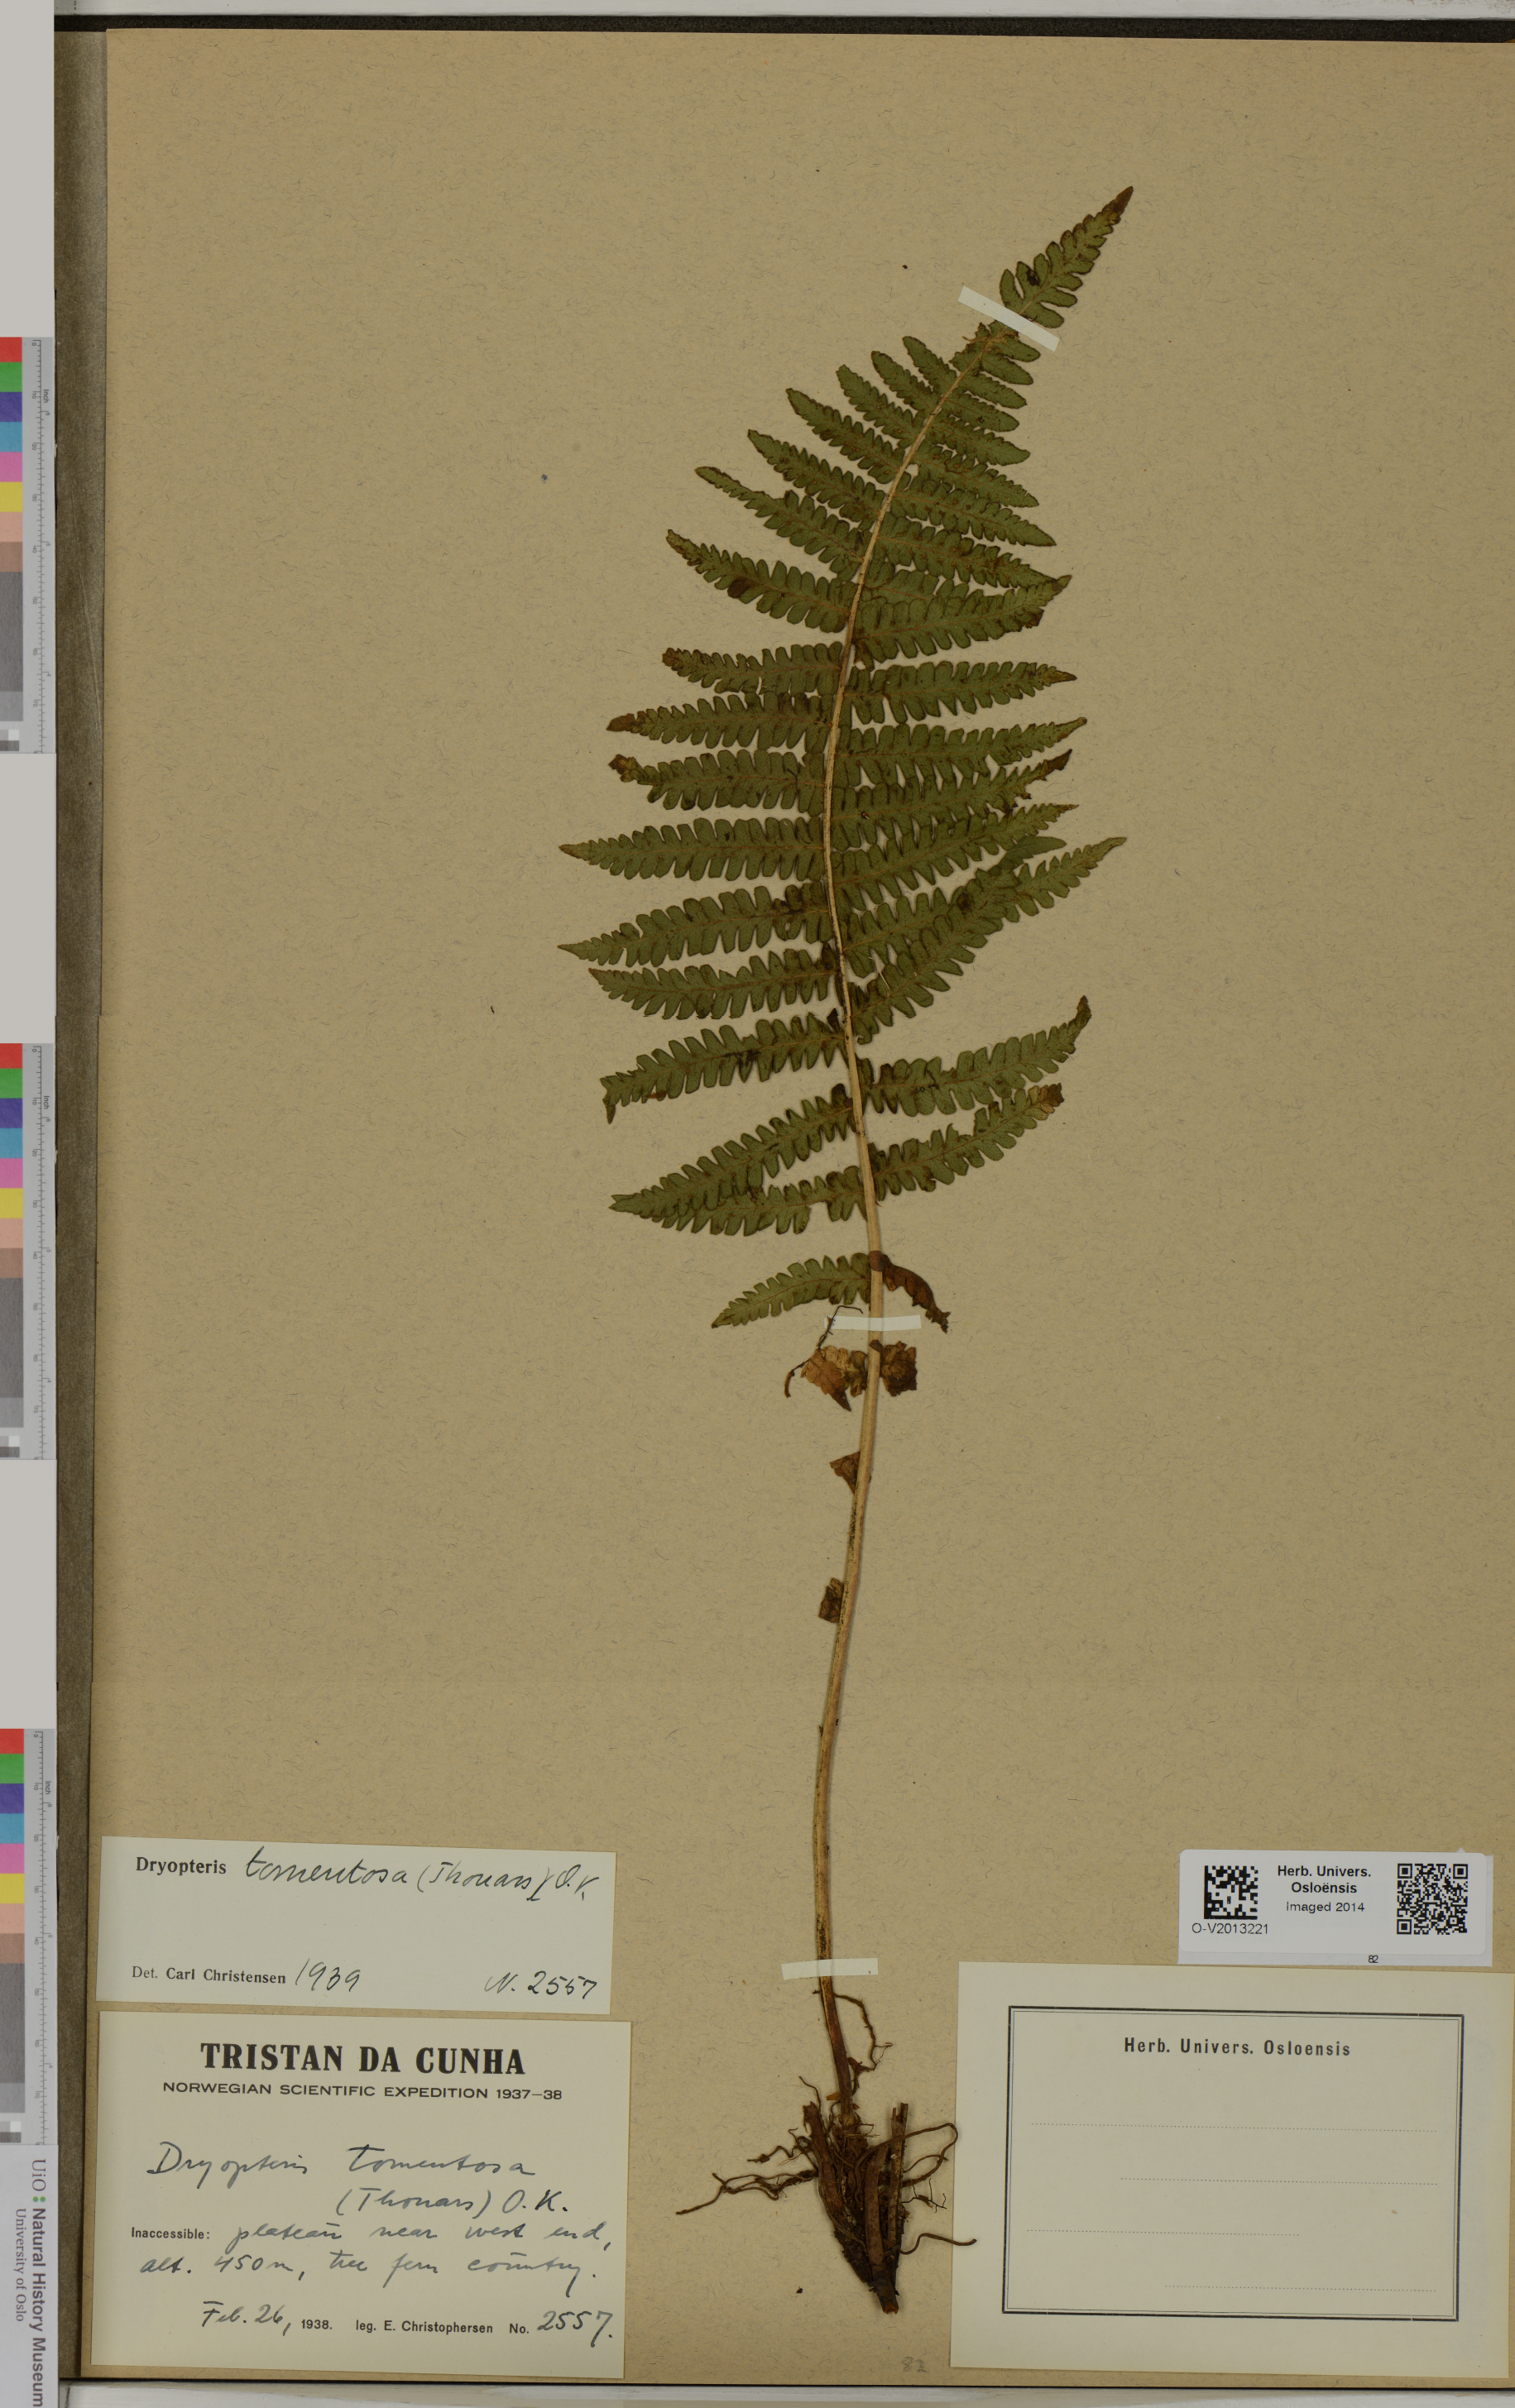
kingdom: Plantae
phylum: Tracheophyta
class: Polypodiopsida
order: Polypodiales
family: Thelypteridaceae
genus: Amauropelta
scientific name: Amauropelta tomentosa
